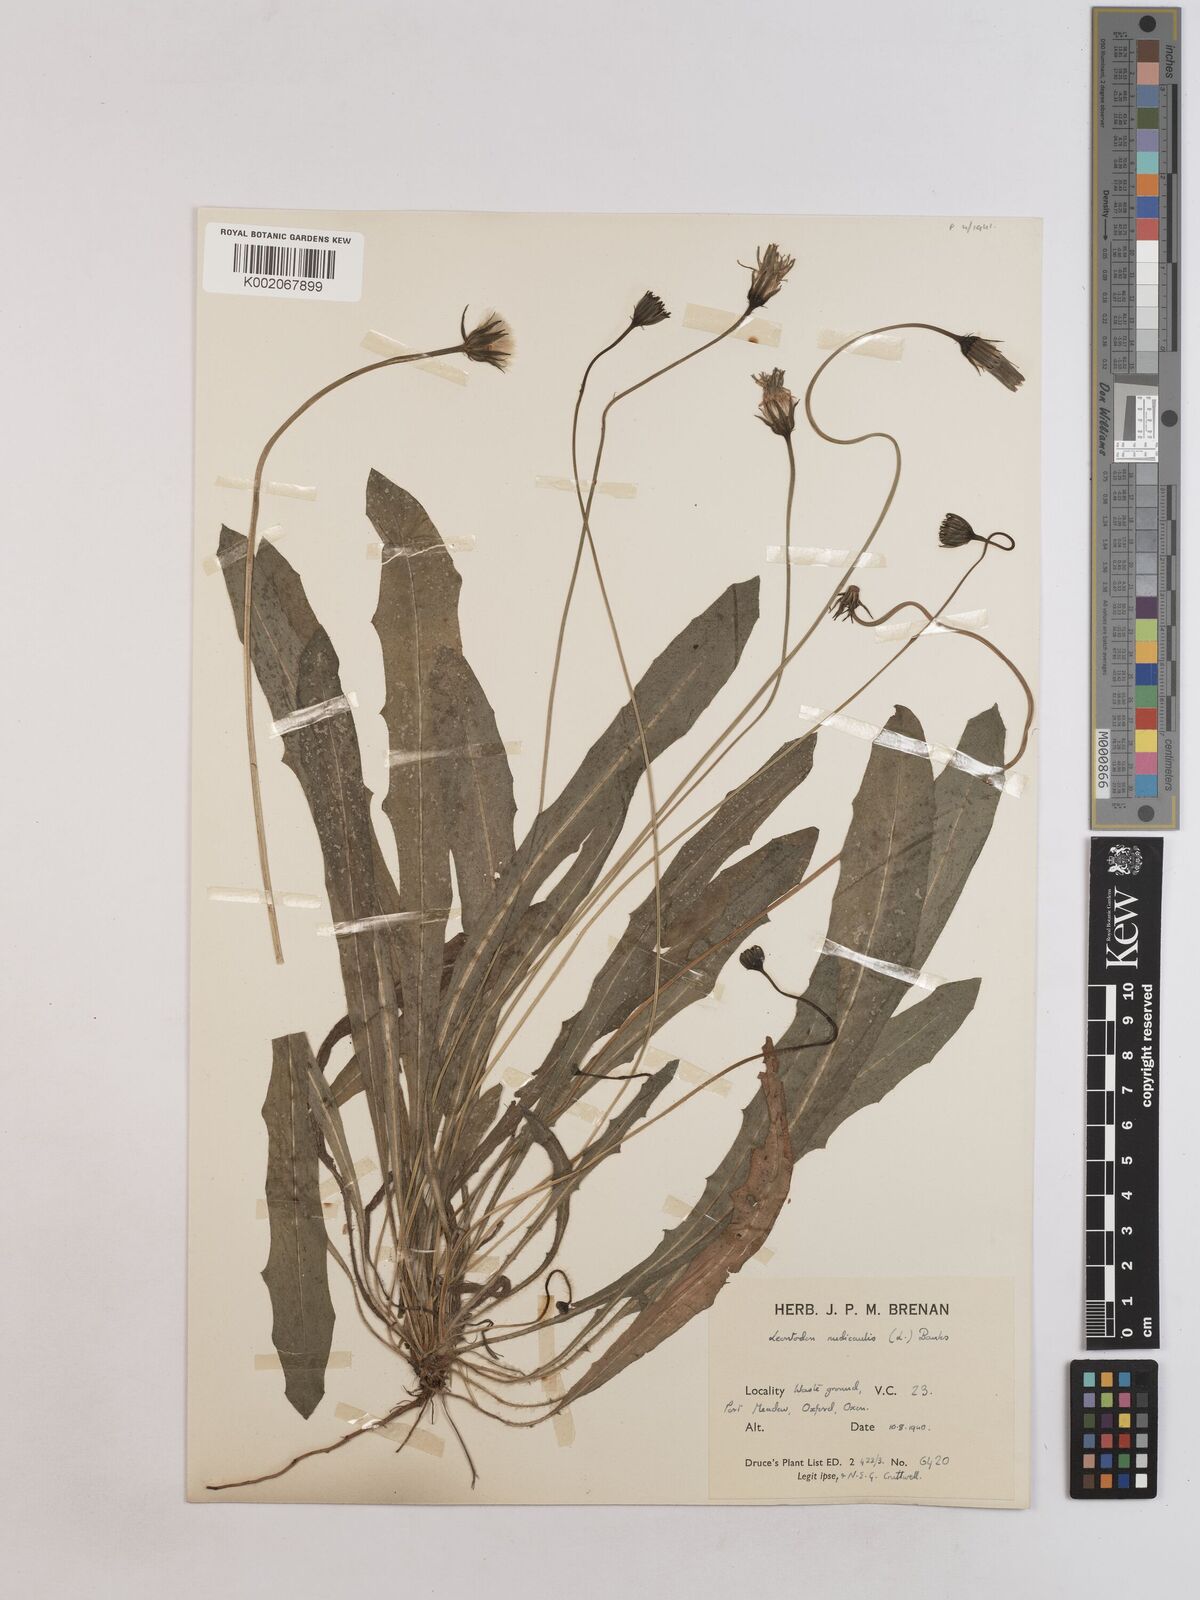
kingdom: Plantae
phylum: Tracheophyta
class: Magnoliopsida
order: Asterales
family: Asteraceae
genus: Thrincia
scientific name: Thrincia saxatilis
